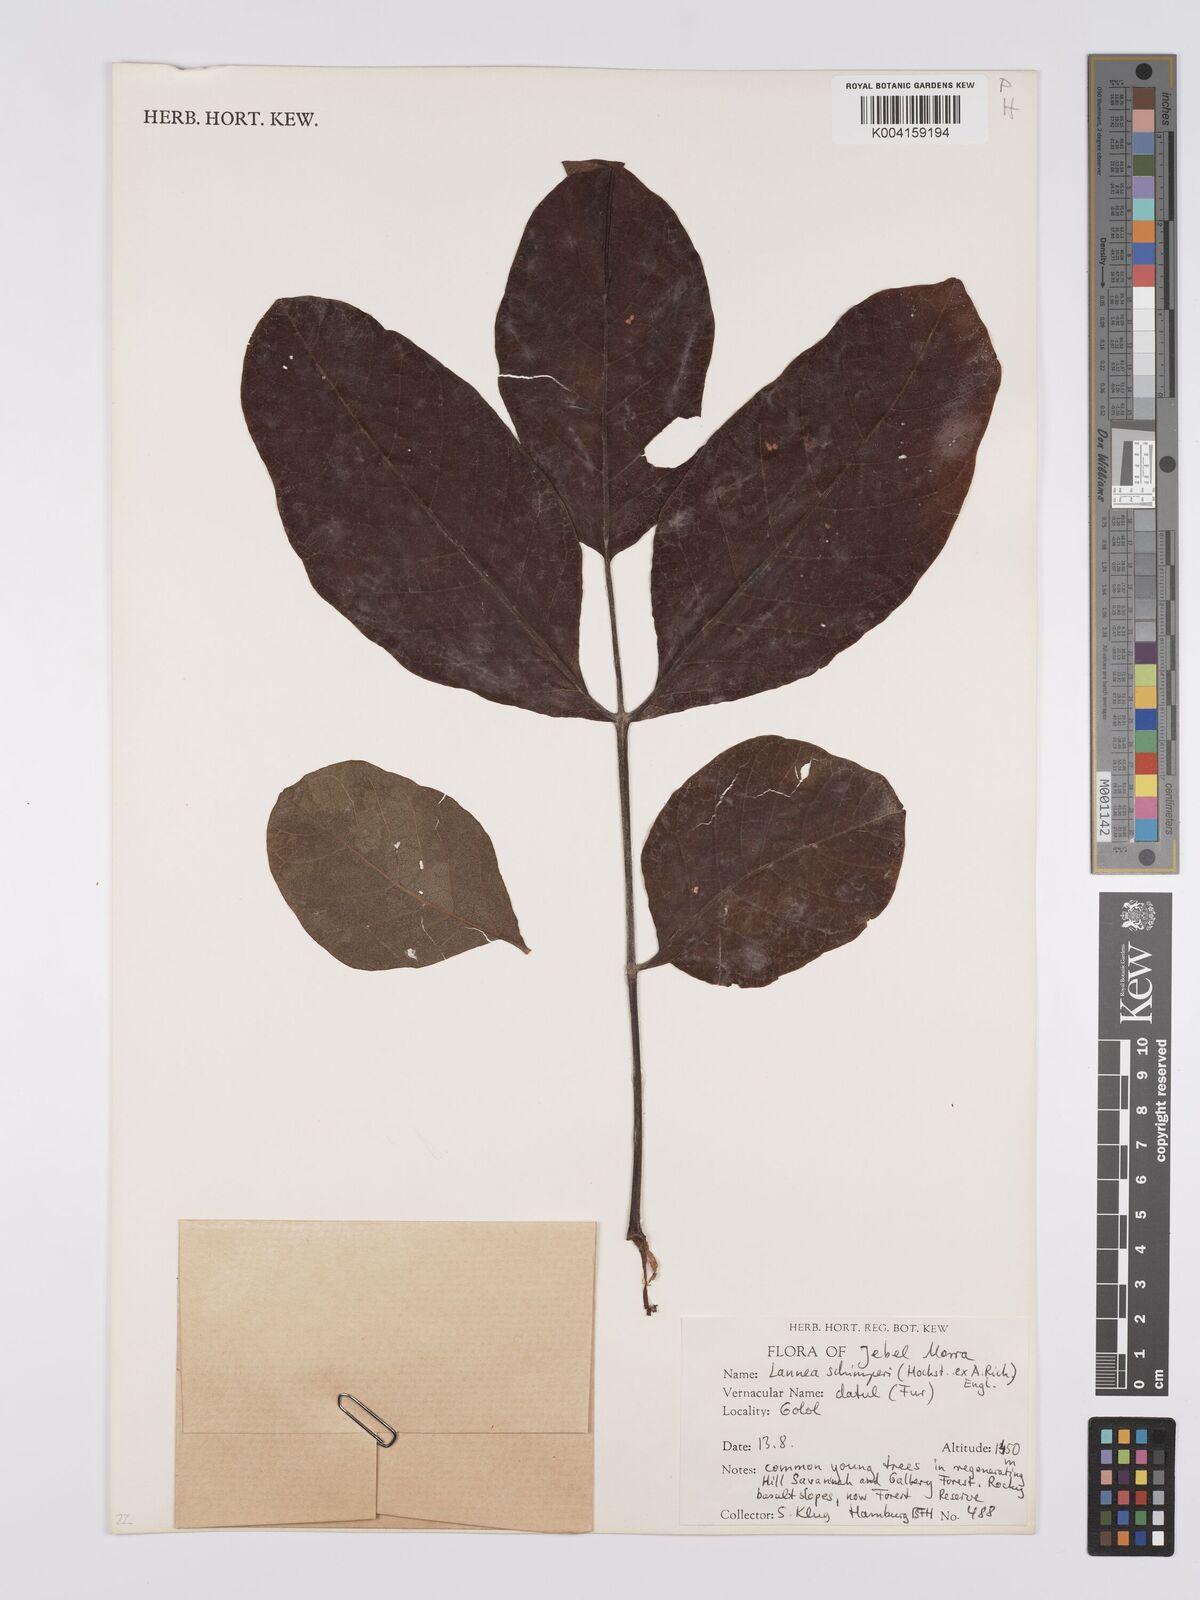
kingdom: Plantae
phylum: Tracheophyta
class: Magnoliopsida
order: Sapindales
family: Anacardiaceae
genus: Lannea
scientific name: Lannea schimperi
